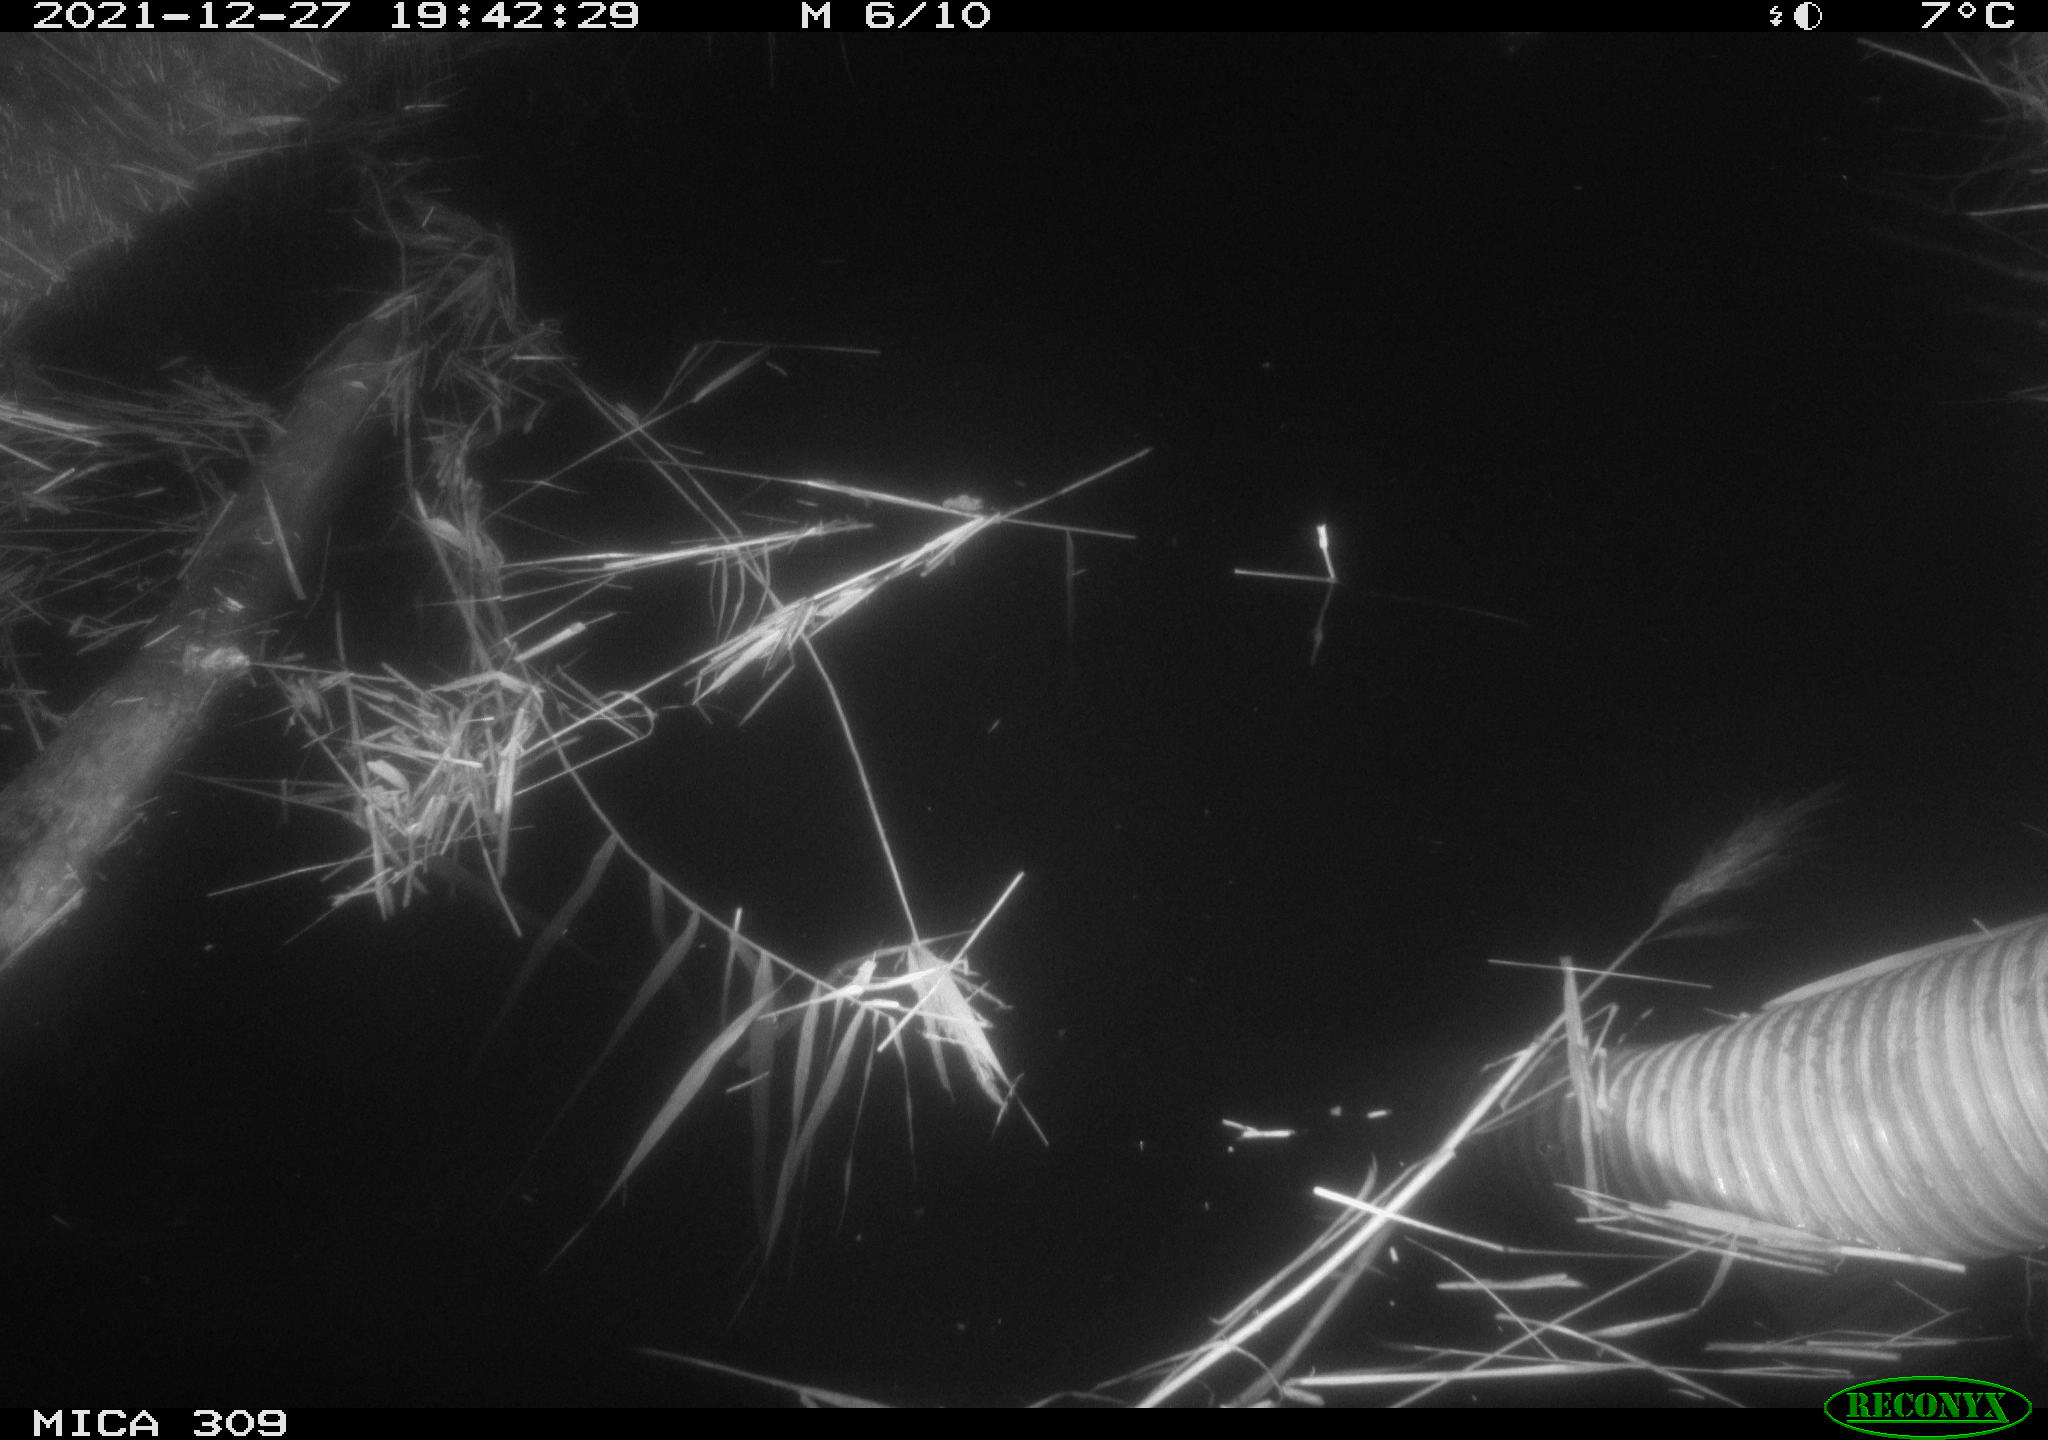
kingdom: Animalia
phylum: Chordata
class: Mammalia
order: Rodentia
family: Cricetidae
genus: Ondatra
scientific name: Ondatra zibethicus
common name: Muskrat
